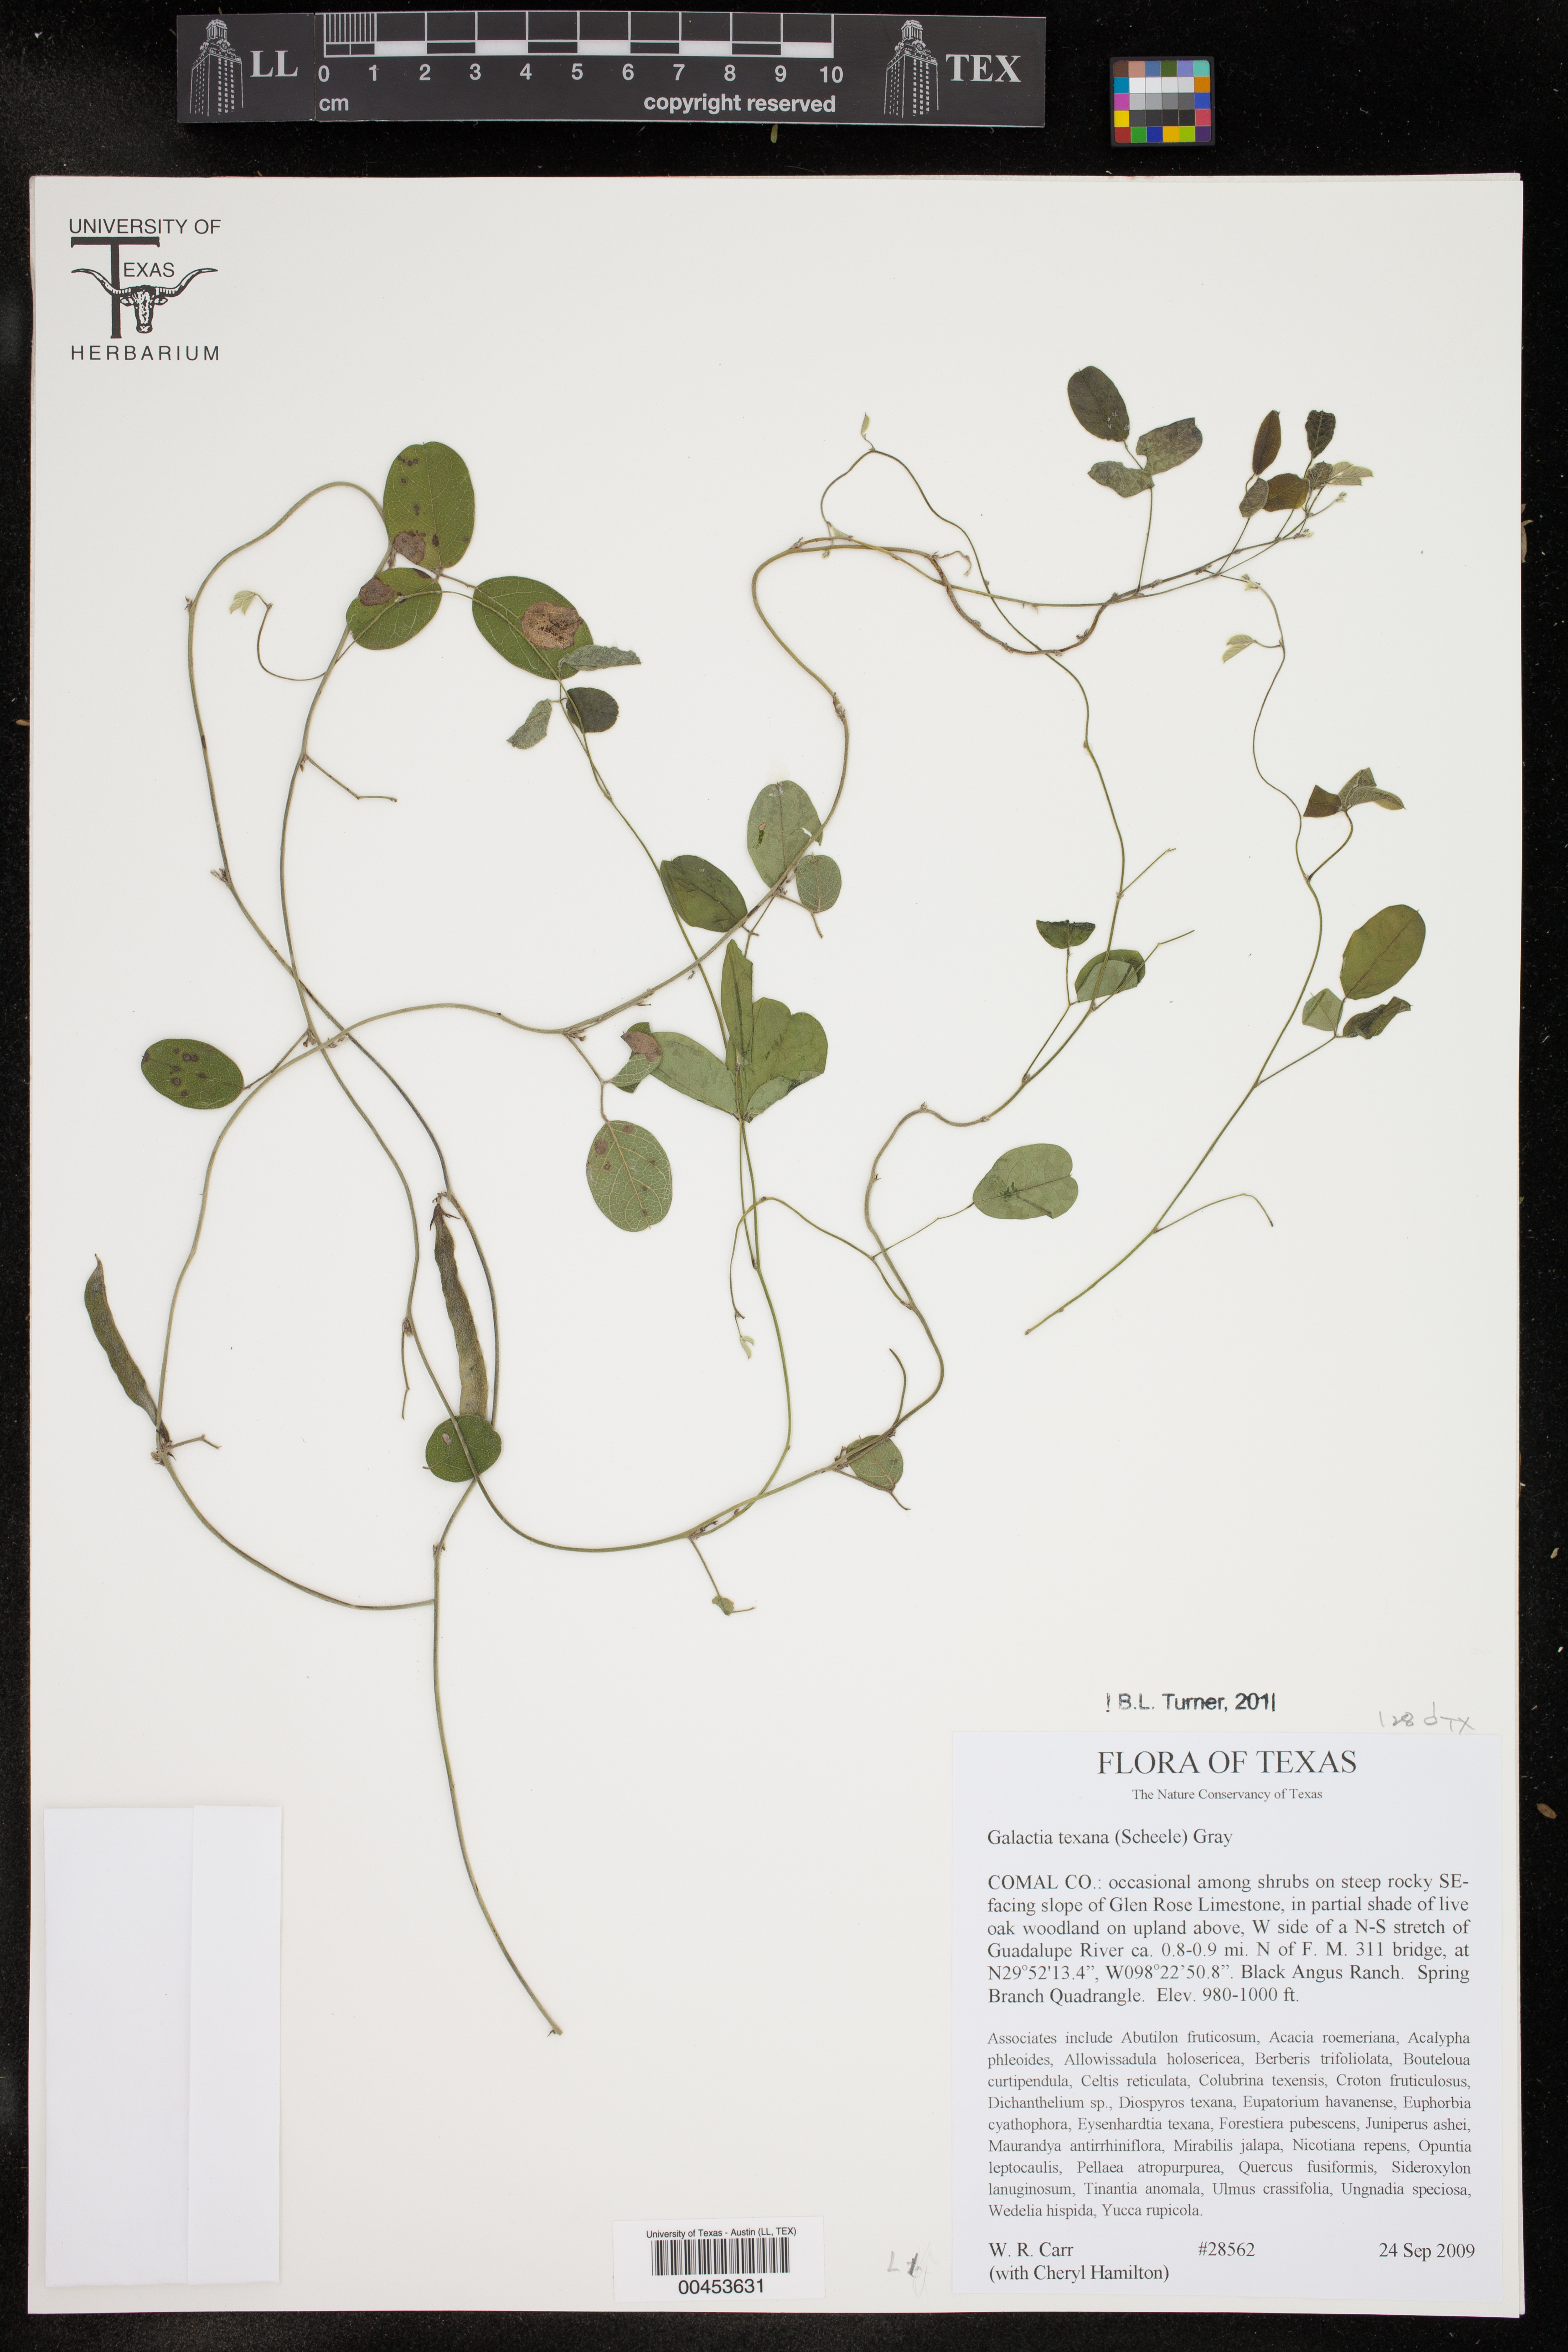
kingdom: Plantae
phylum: Tracheophyta
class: Magnoliopsida
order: Fabales
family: Fabaceae
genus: Galactia
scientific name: Galactia texana
